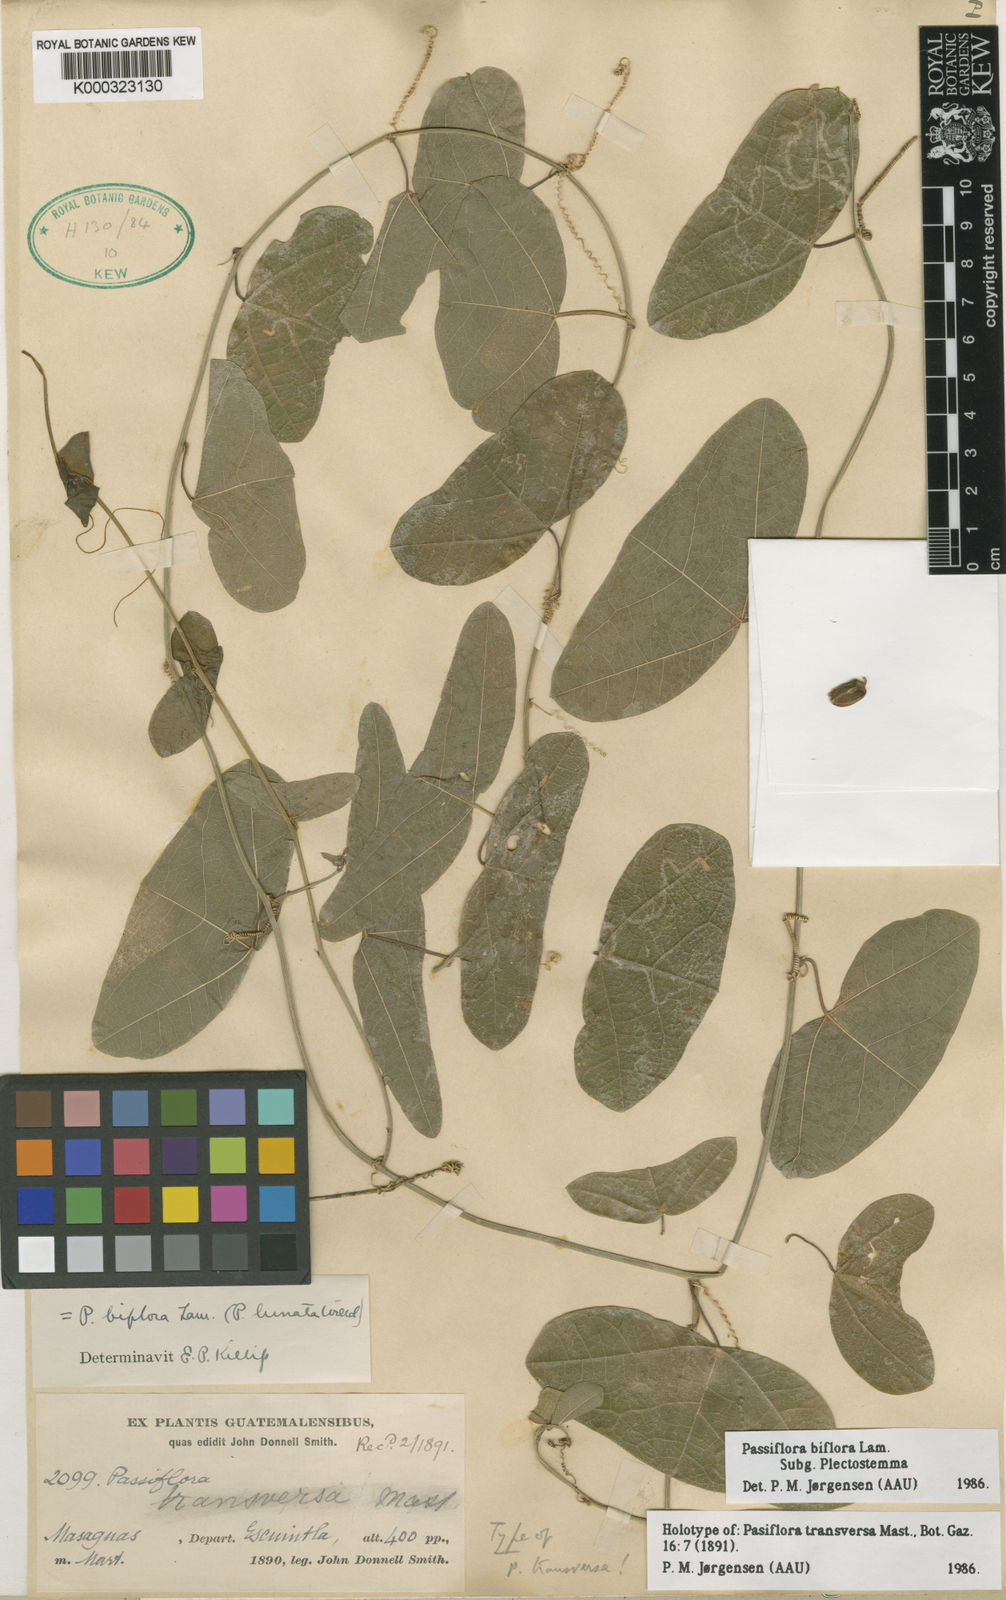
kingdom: Plantae
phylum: Tracheophyta
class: Magnoliopsida
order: Malpighiales
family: Passifloraceae
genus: Passiflora
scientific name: Passiflora biflora
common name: Twoflower passionflower
